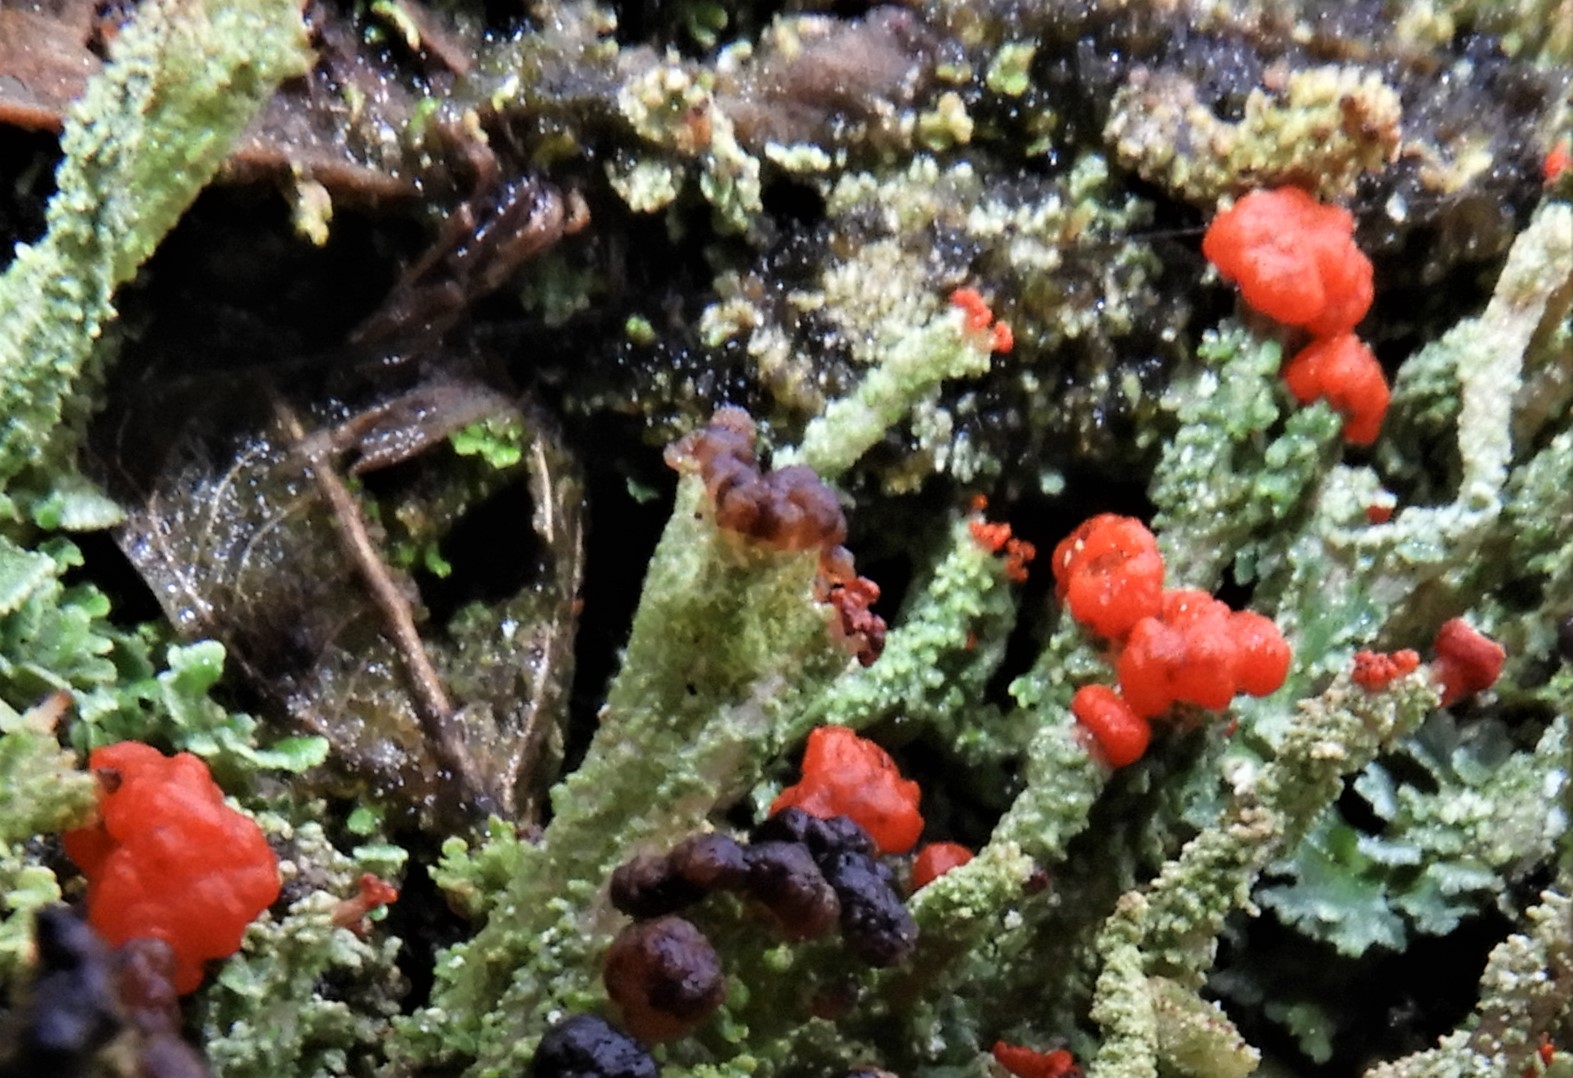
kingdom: Fungi
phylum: Ascomycota
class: Lecanoromycetes
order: Lecanorales
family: Cladoniaceae
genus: Cladonia
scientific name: Cladonia floerkeana
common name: lakrød bægerlav
